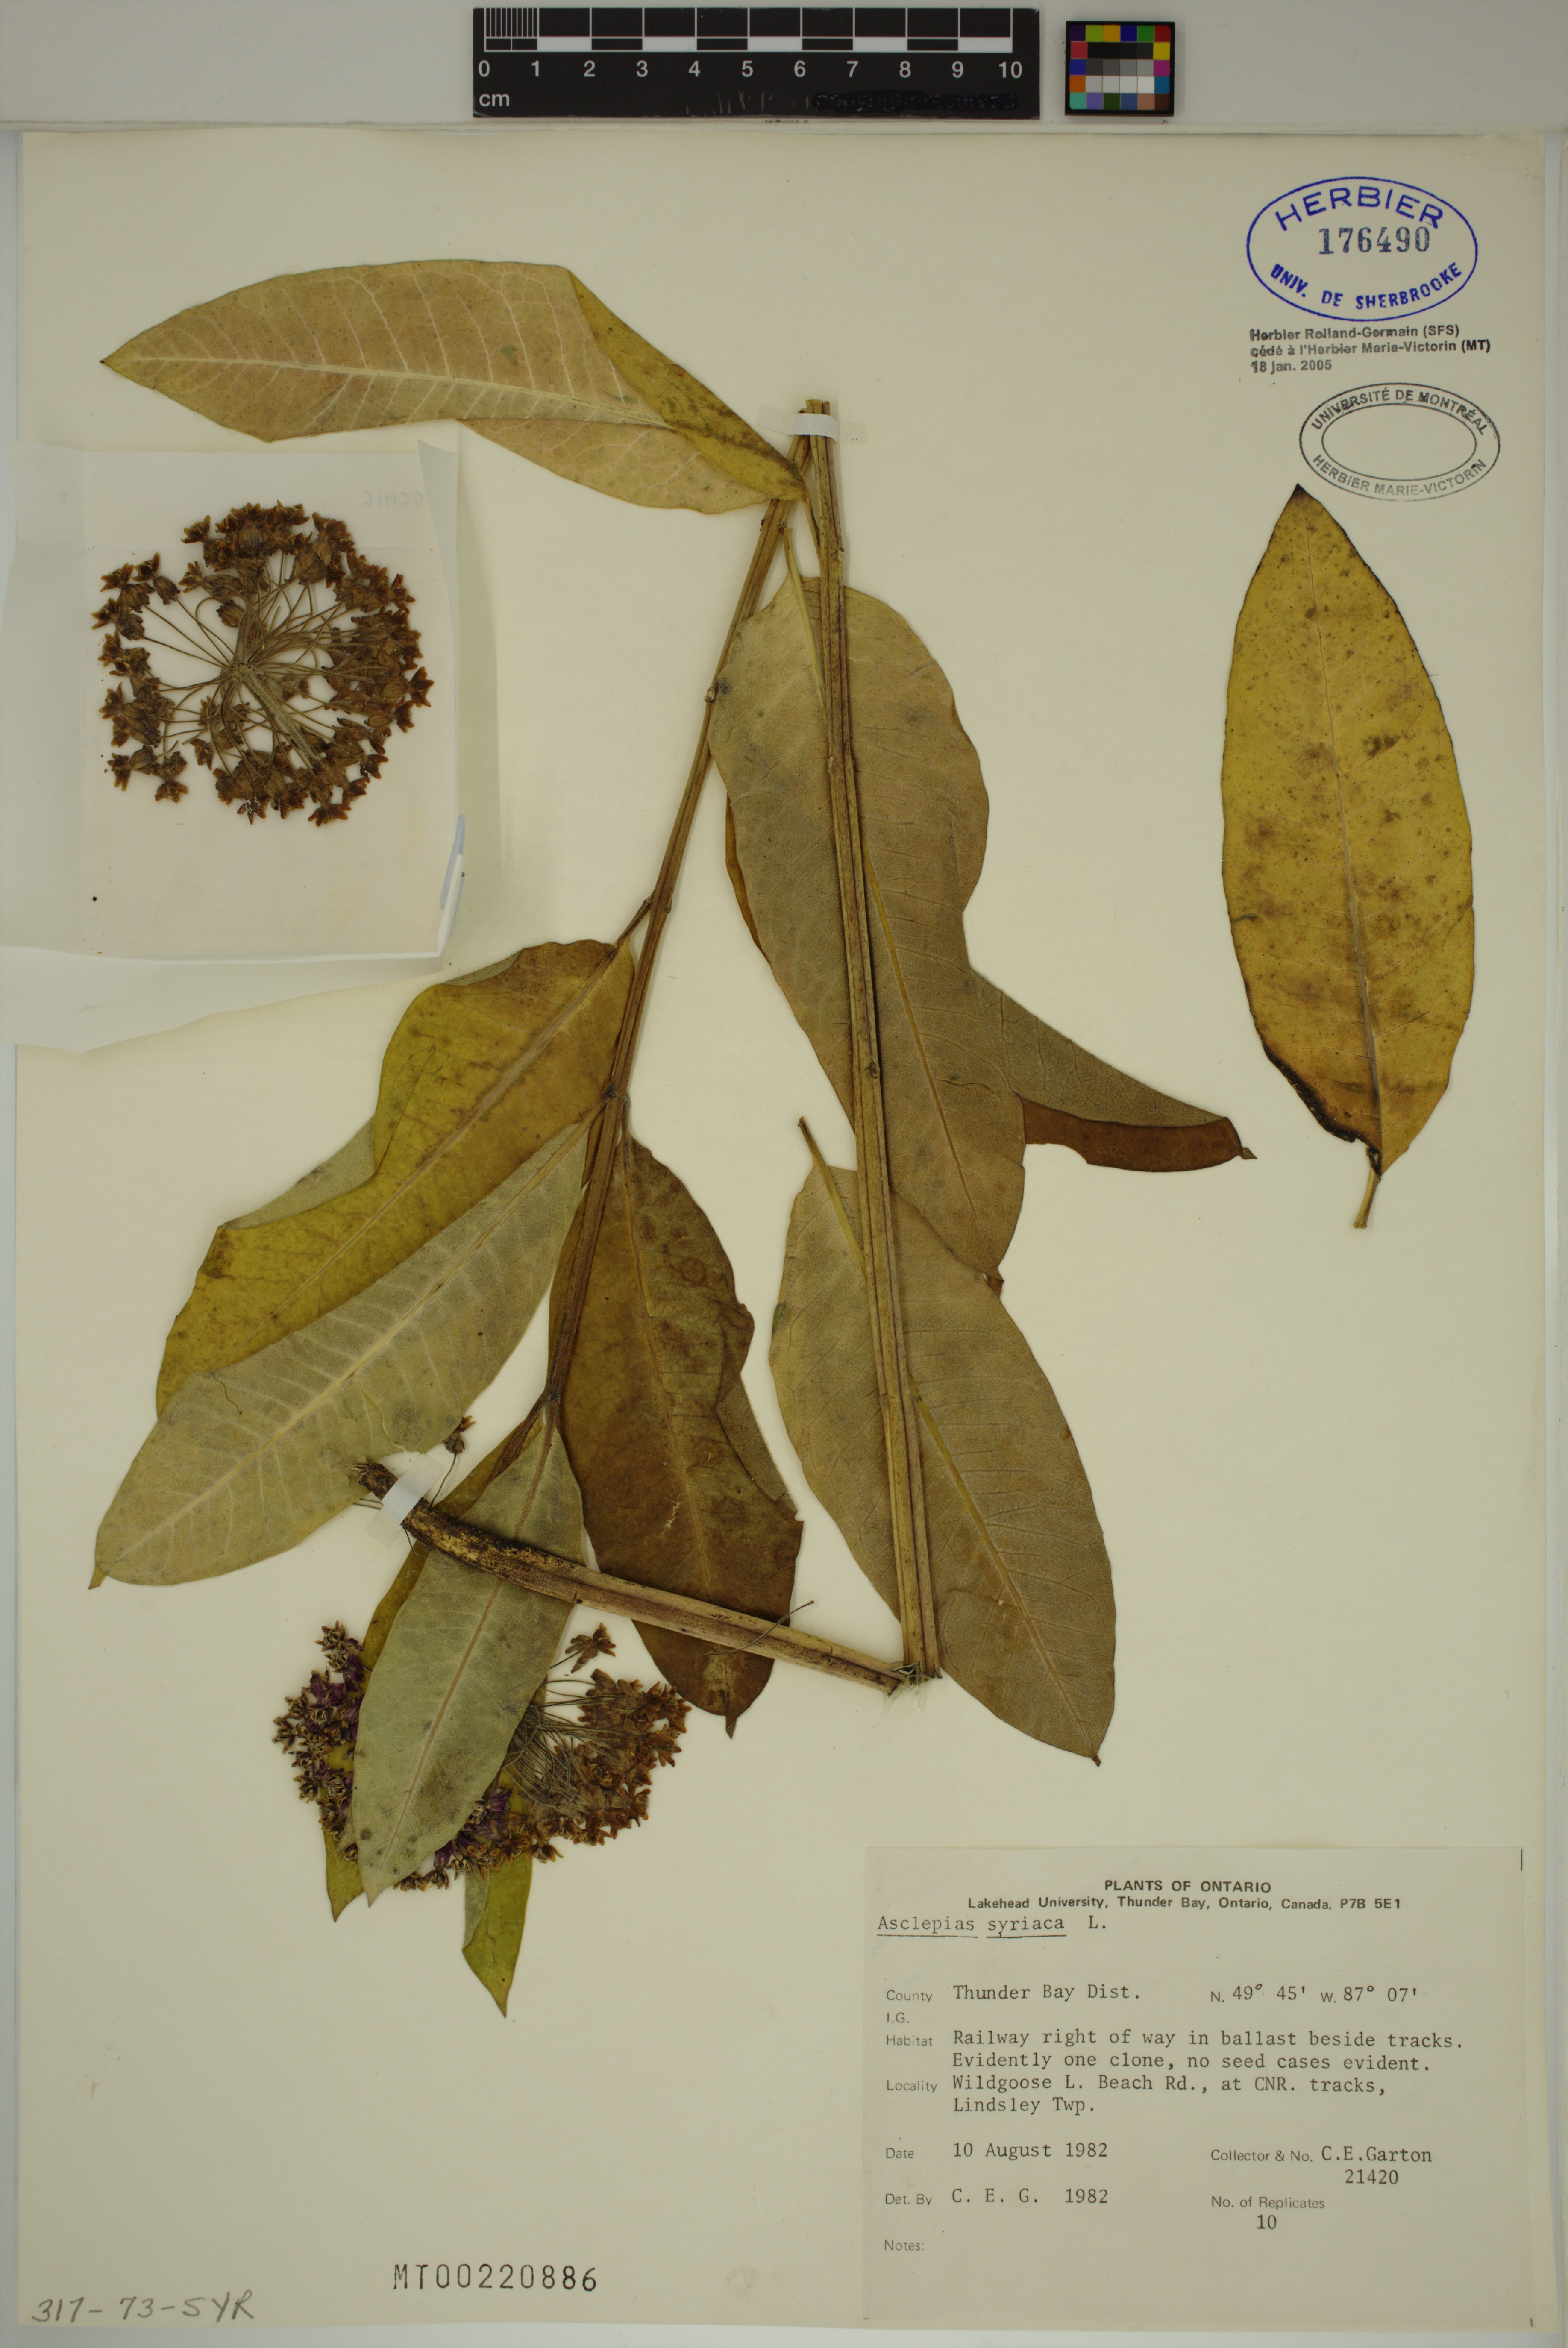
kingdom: Plantae
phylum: Tracheophyta
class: Magnoliopsida
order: Gentianales
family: Apocynaceae
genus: Asclepias
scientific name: Asclepias syriaca
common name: Common milkweed
